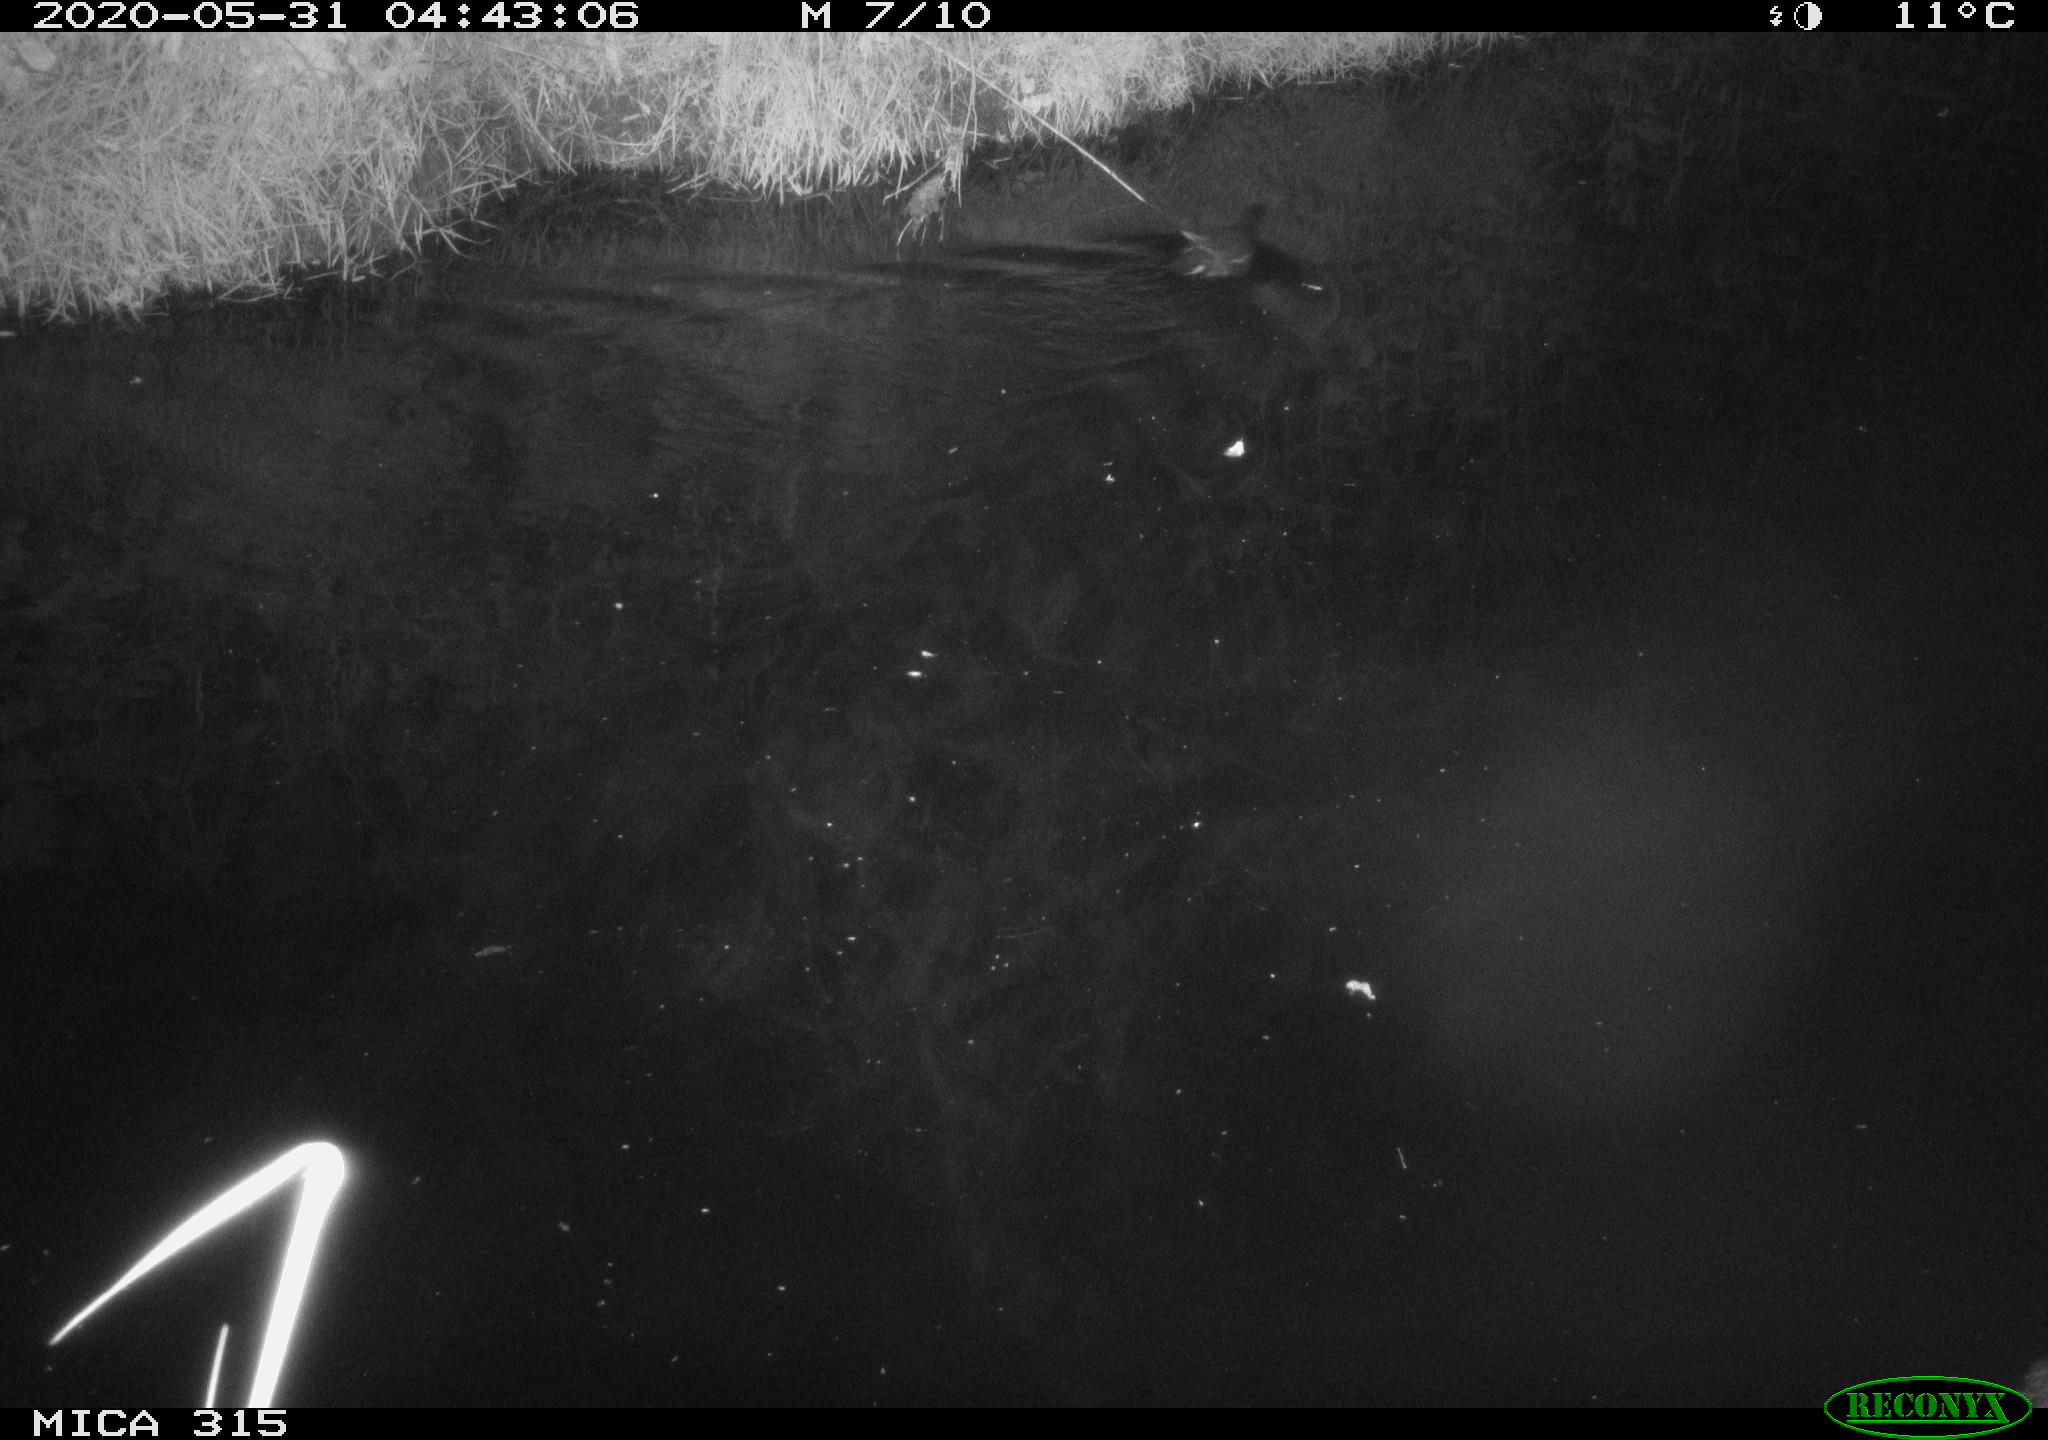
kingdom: Animalia
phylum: Chordata
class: Aves
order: Gruiformes
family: Rallidae
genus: Gallinula
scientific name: Gallinula chloropus
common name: Common moorhen
